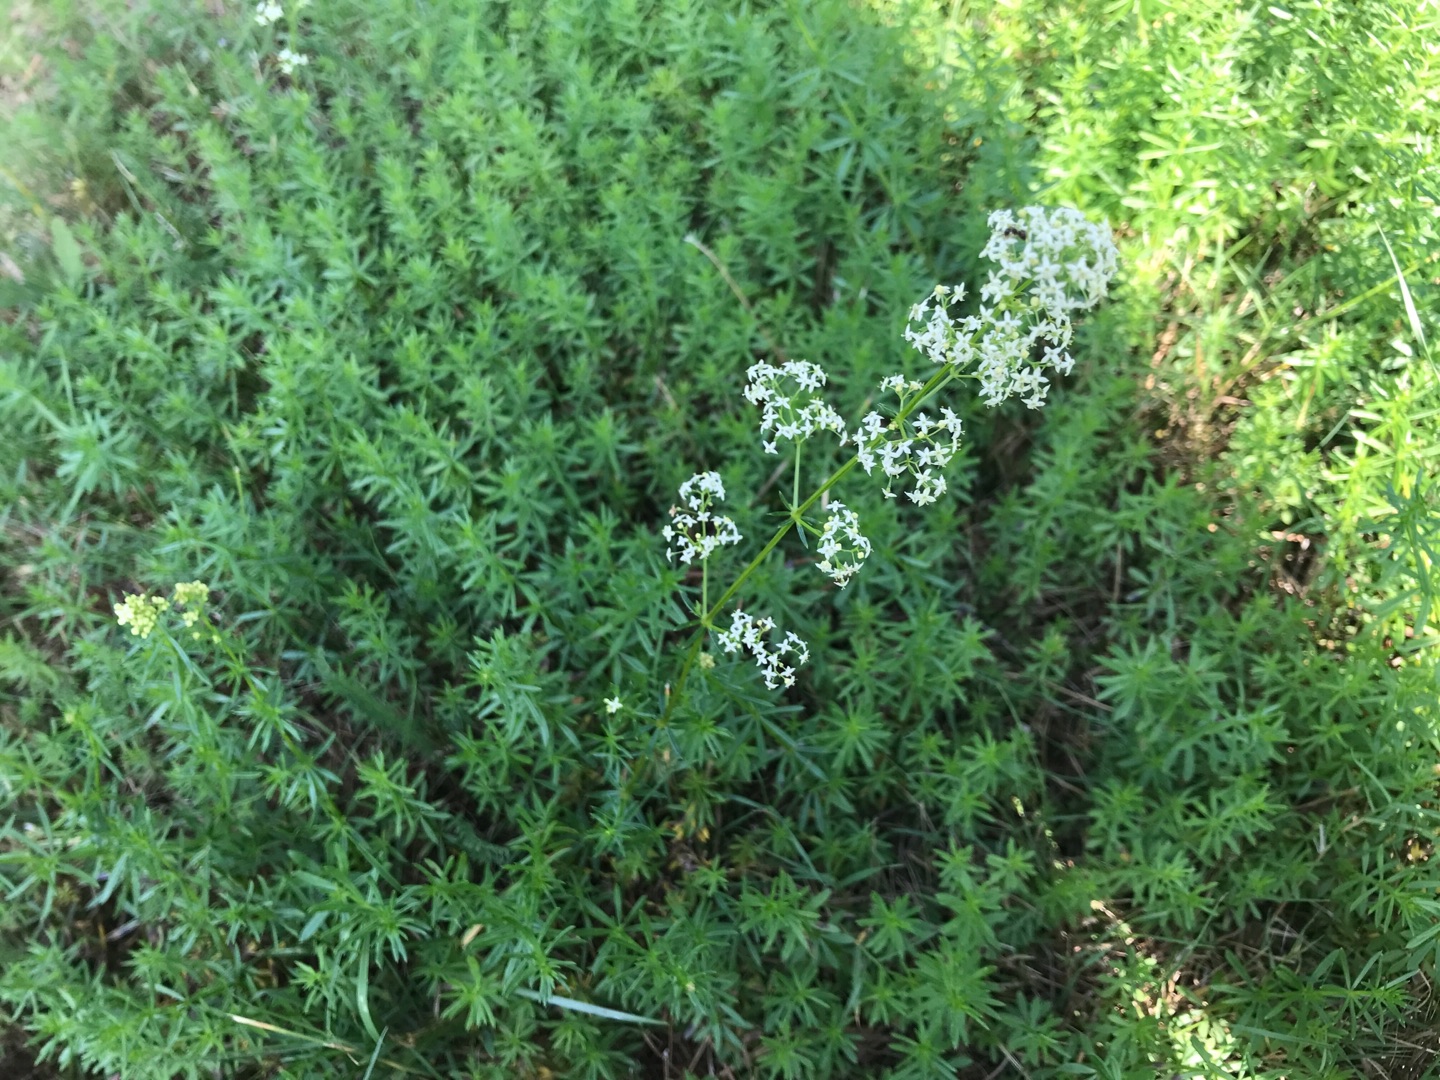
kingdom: Plantae
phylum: Tracheophyta
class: Magnoliopsida
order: Gentianales
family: Rubiaceae
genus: Galium
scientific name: Galium mollugo
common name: Hvid snerre
